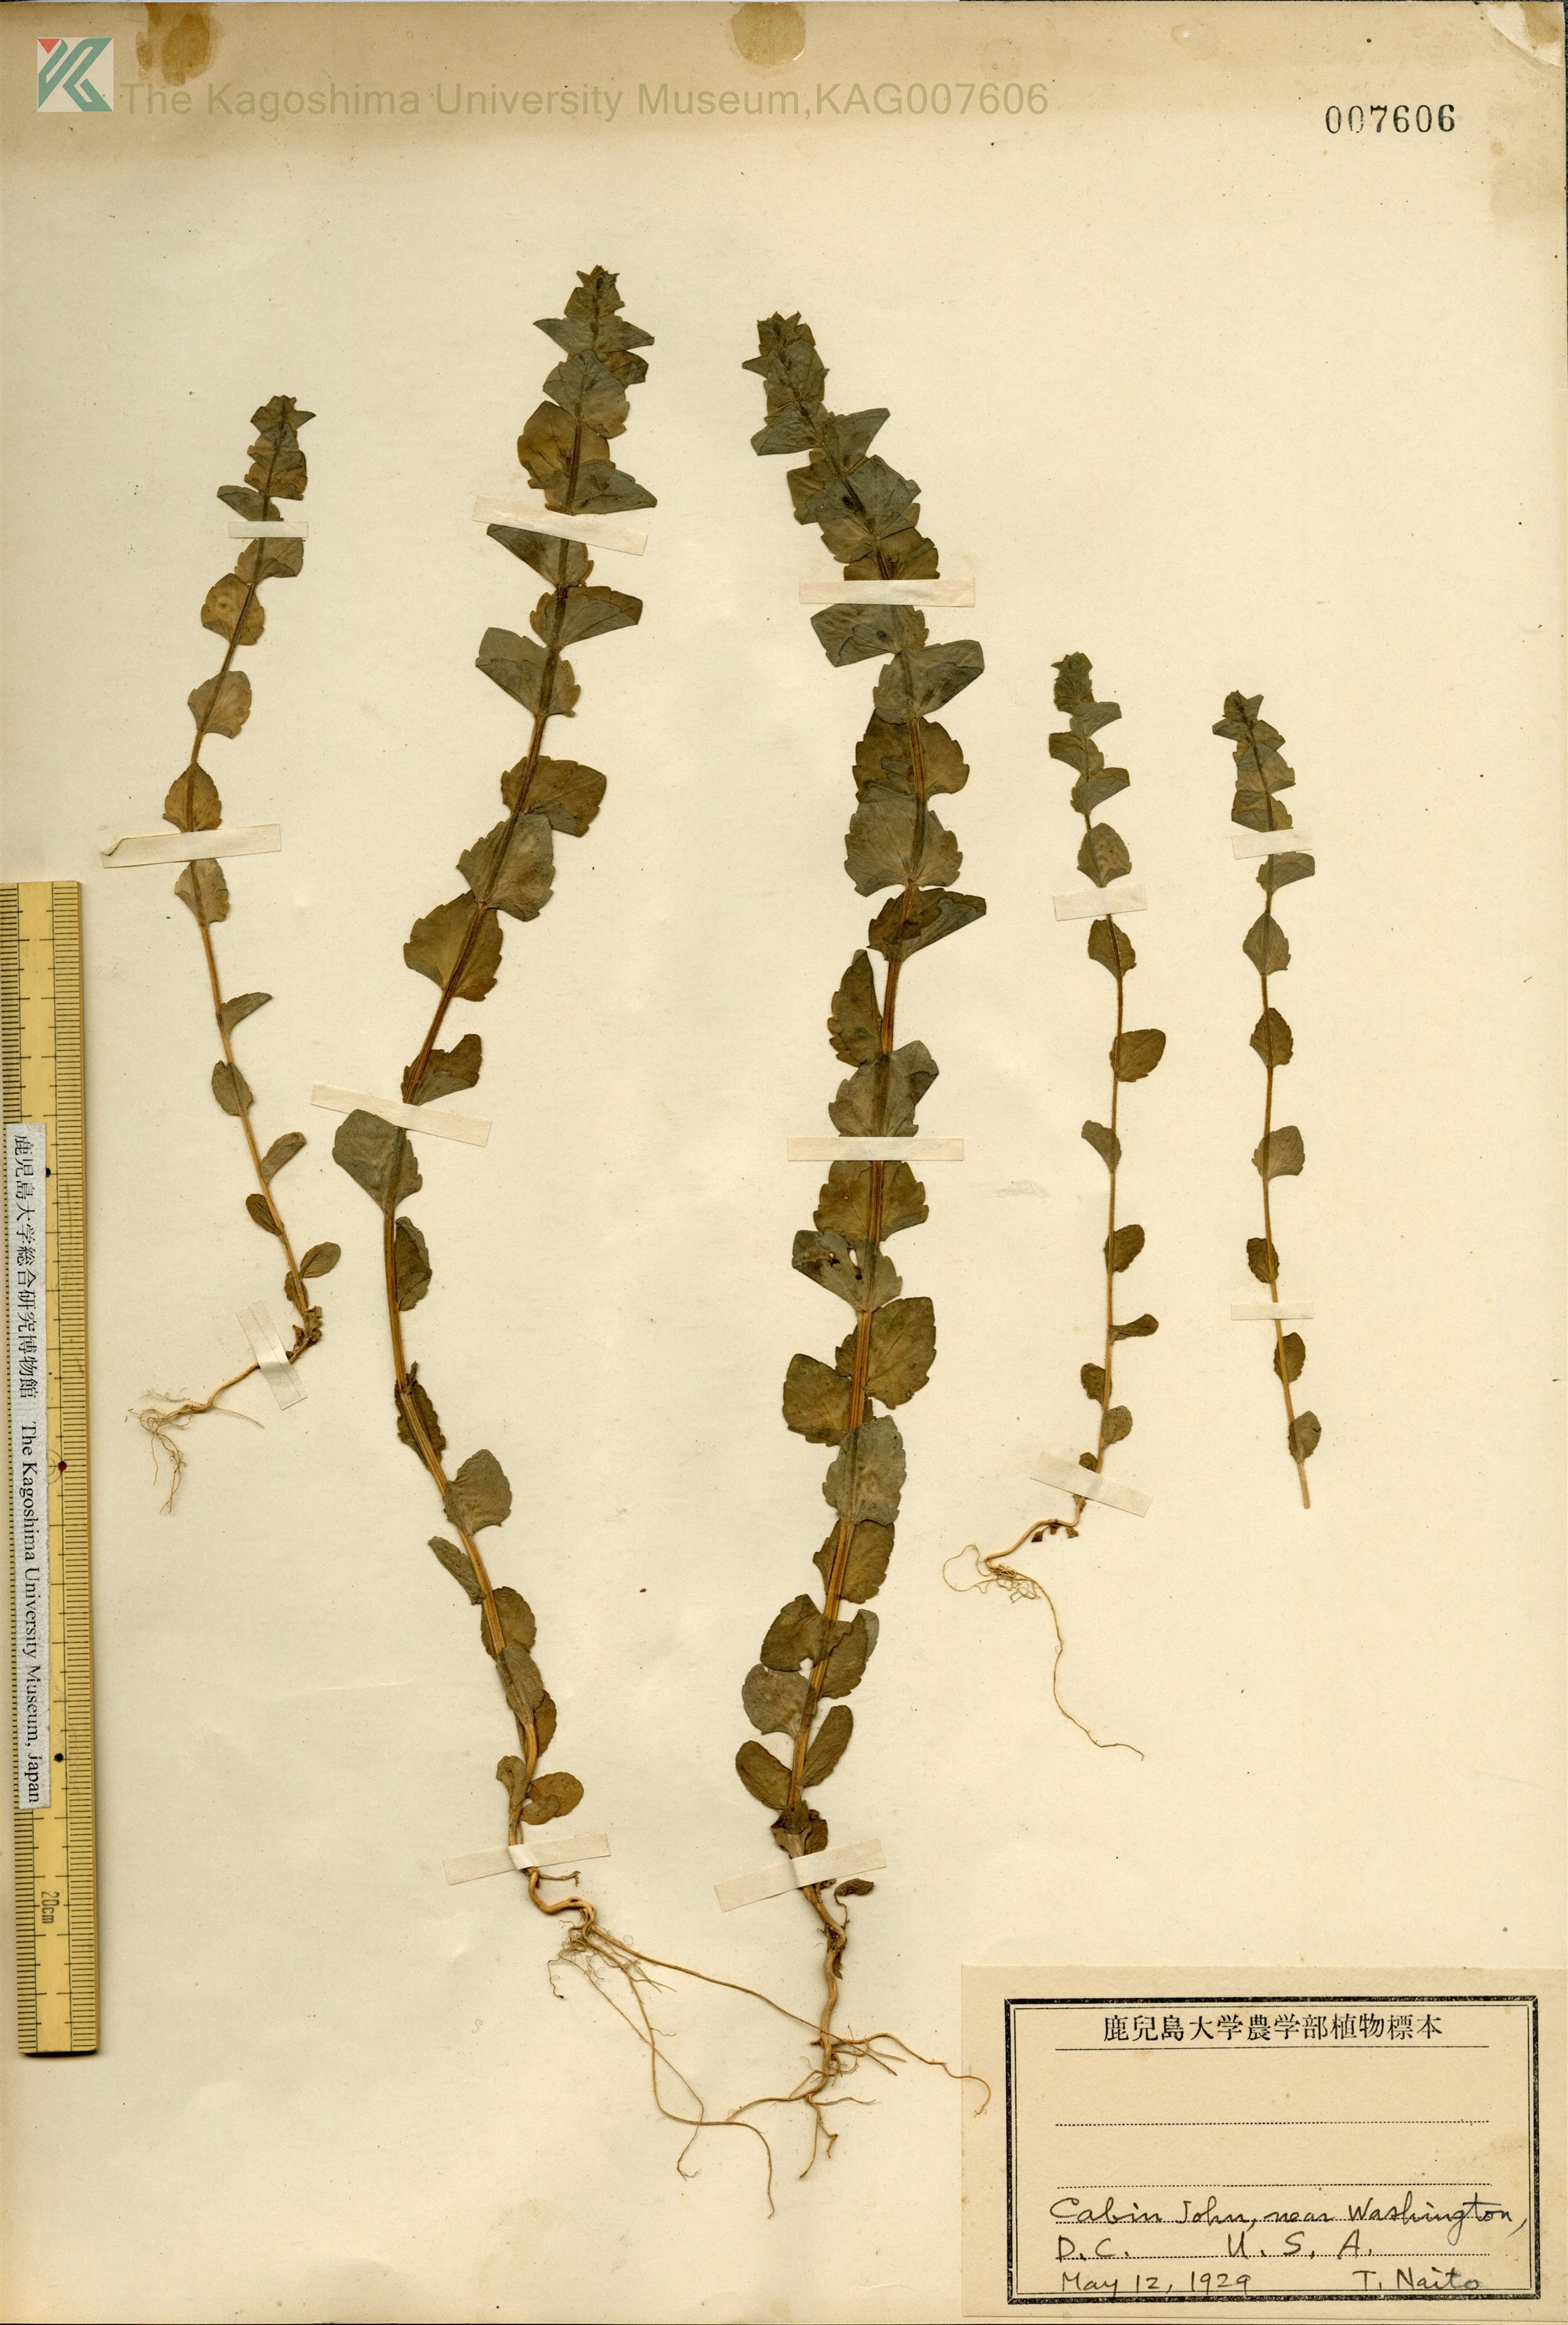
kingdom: Plantae
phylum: Tracheophyta
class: Magnoliopsida
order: Asterales
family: Campanulaceae
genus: Triodanis
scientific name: Triodanis perfoliata
